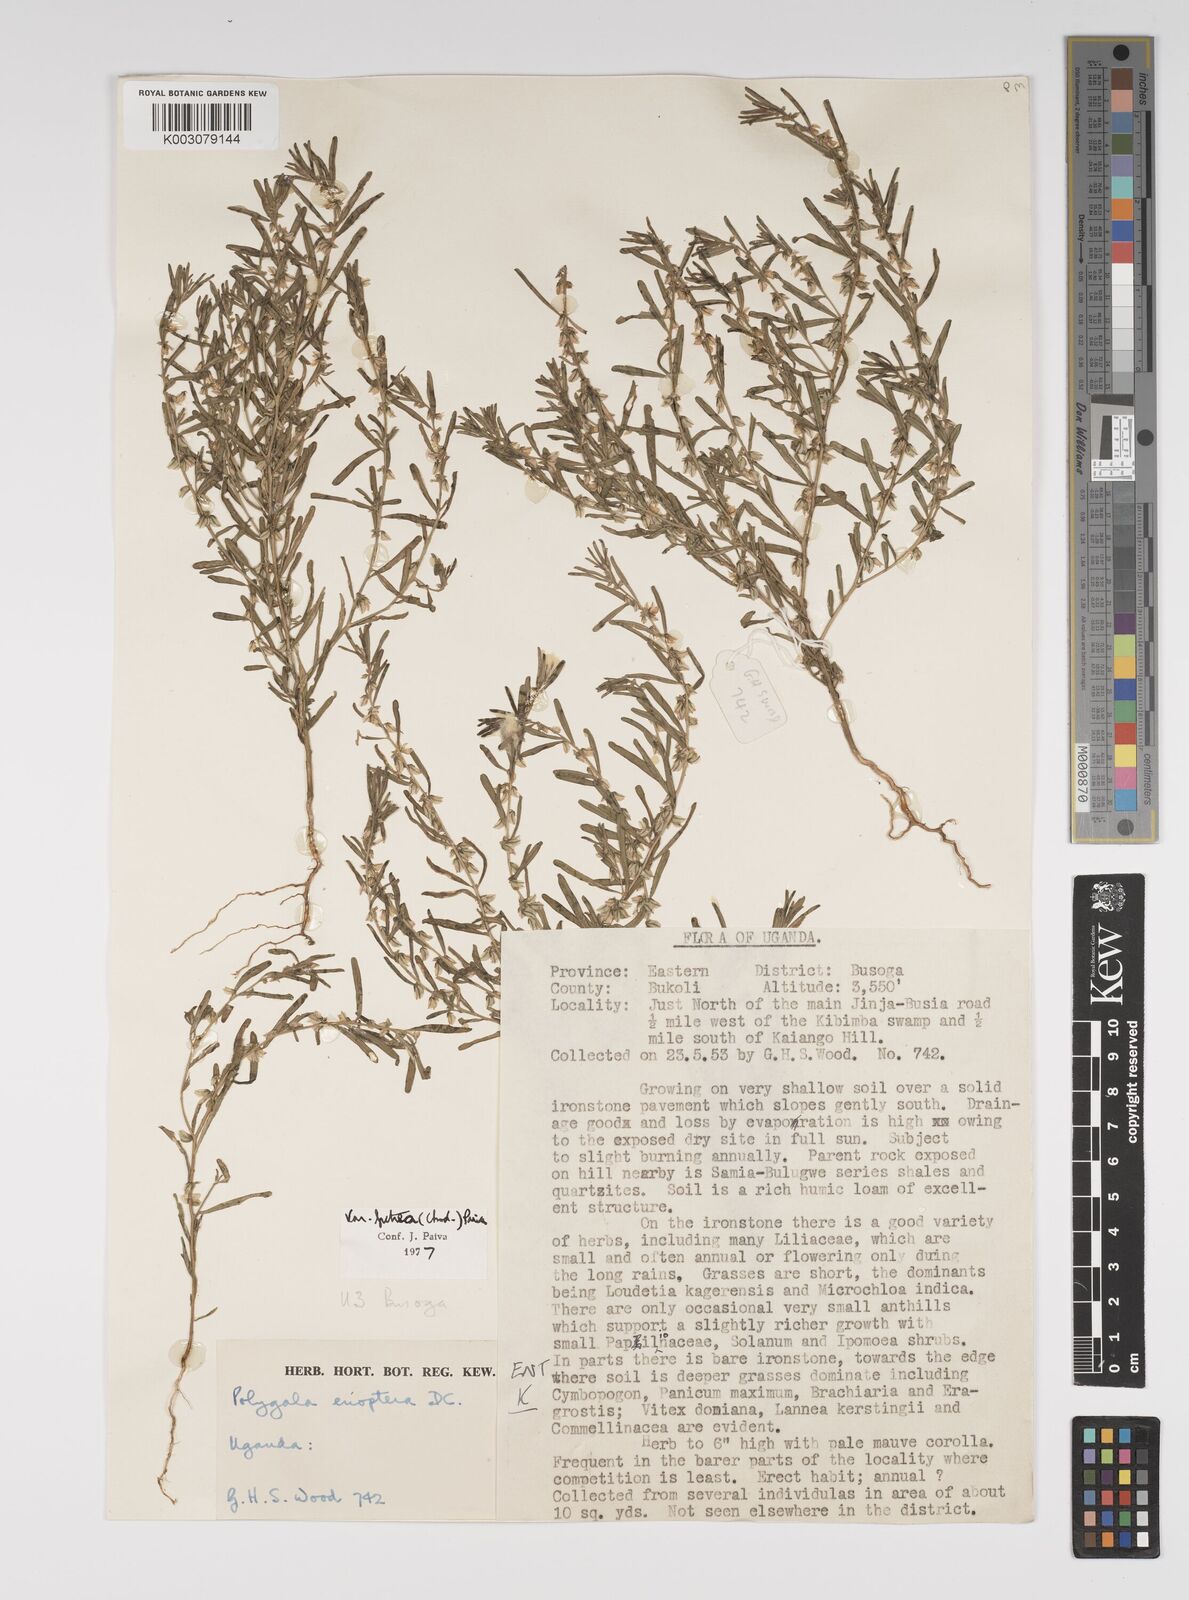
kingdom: Plantae
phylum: Tracheophyta
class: Magnoliopsida
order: Fabales
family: Polygalaceae
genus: Polygala
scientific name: Polygala erioptera
